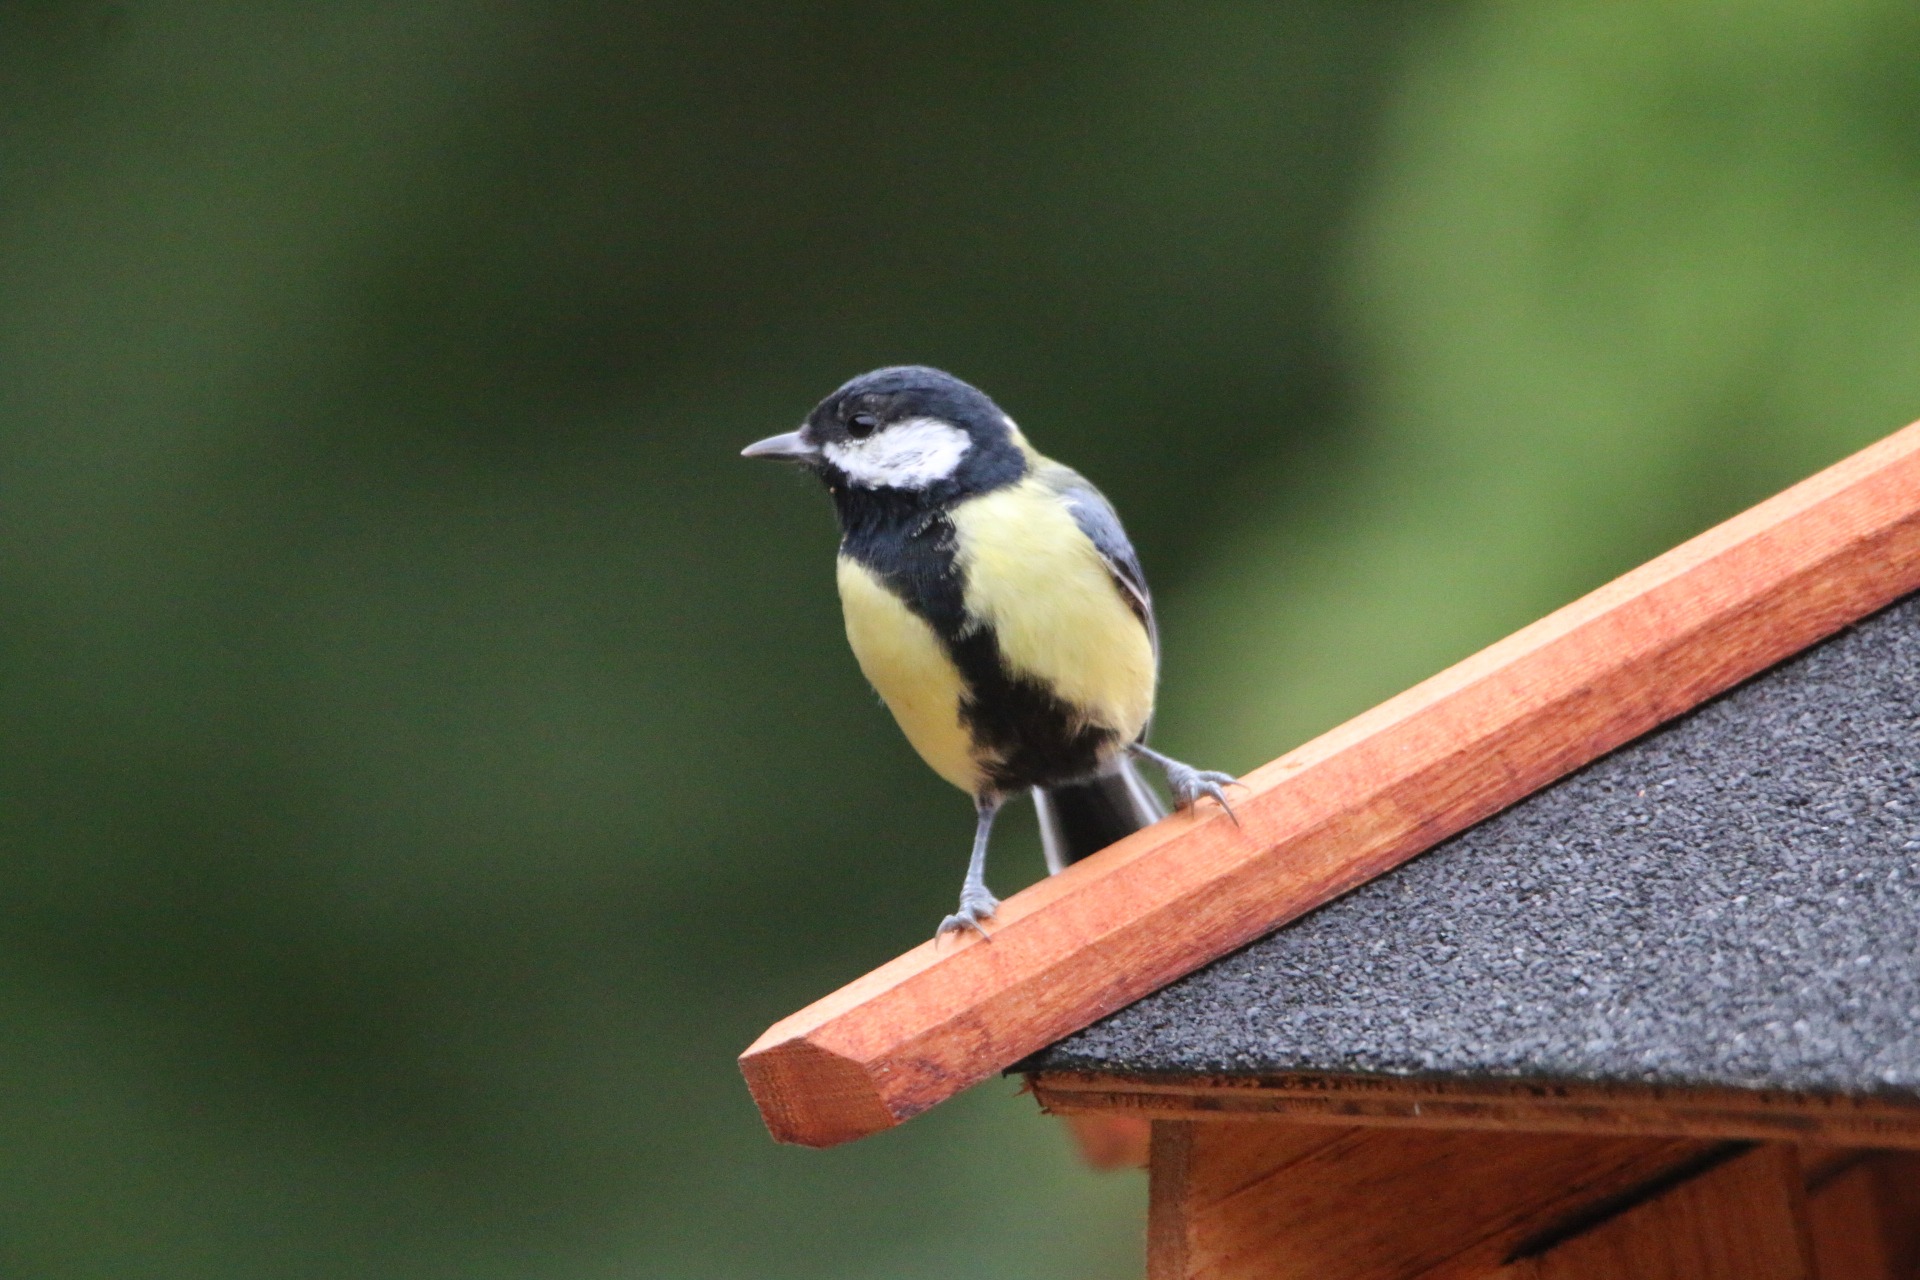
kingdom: Animalia
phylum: Chordata
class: Aves
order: Passeriformes
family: Paridae
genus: Parus
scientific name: Parus major
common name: Musvit
